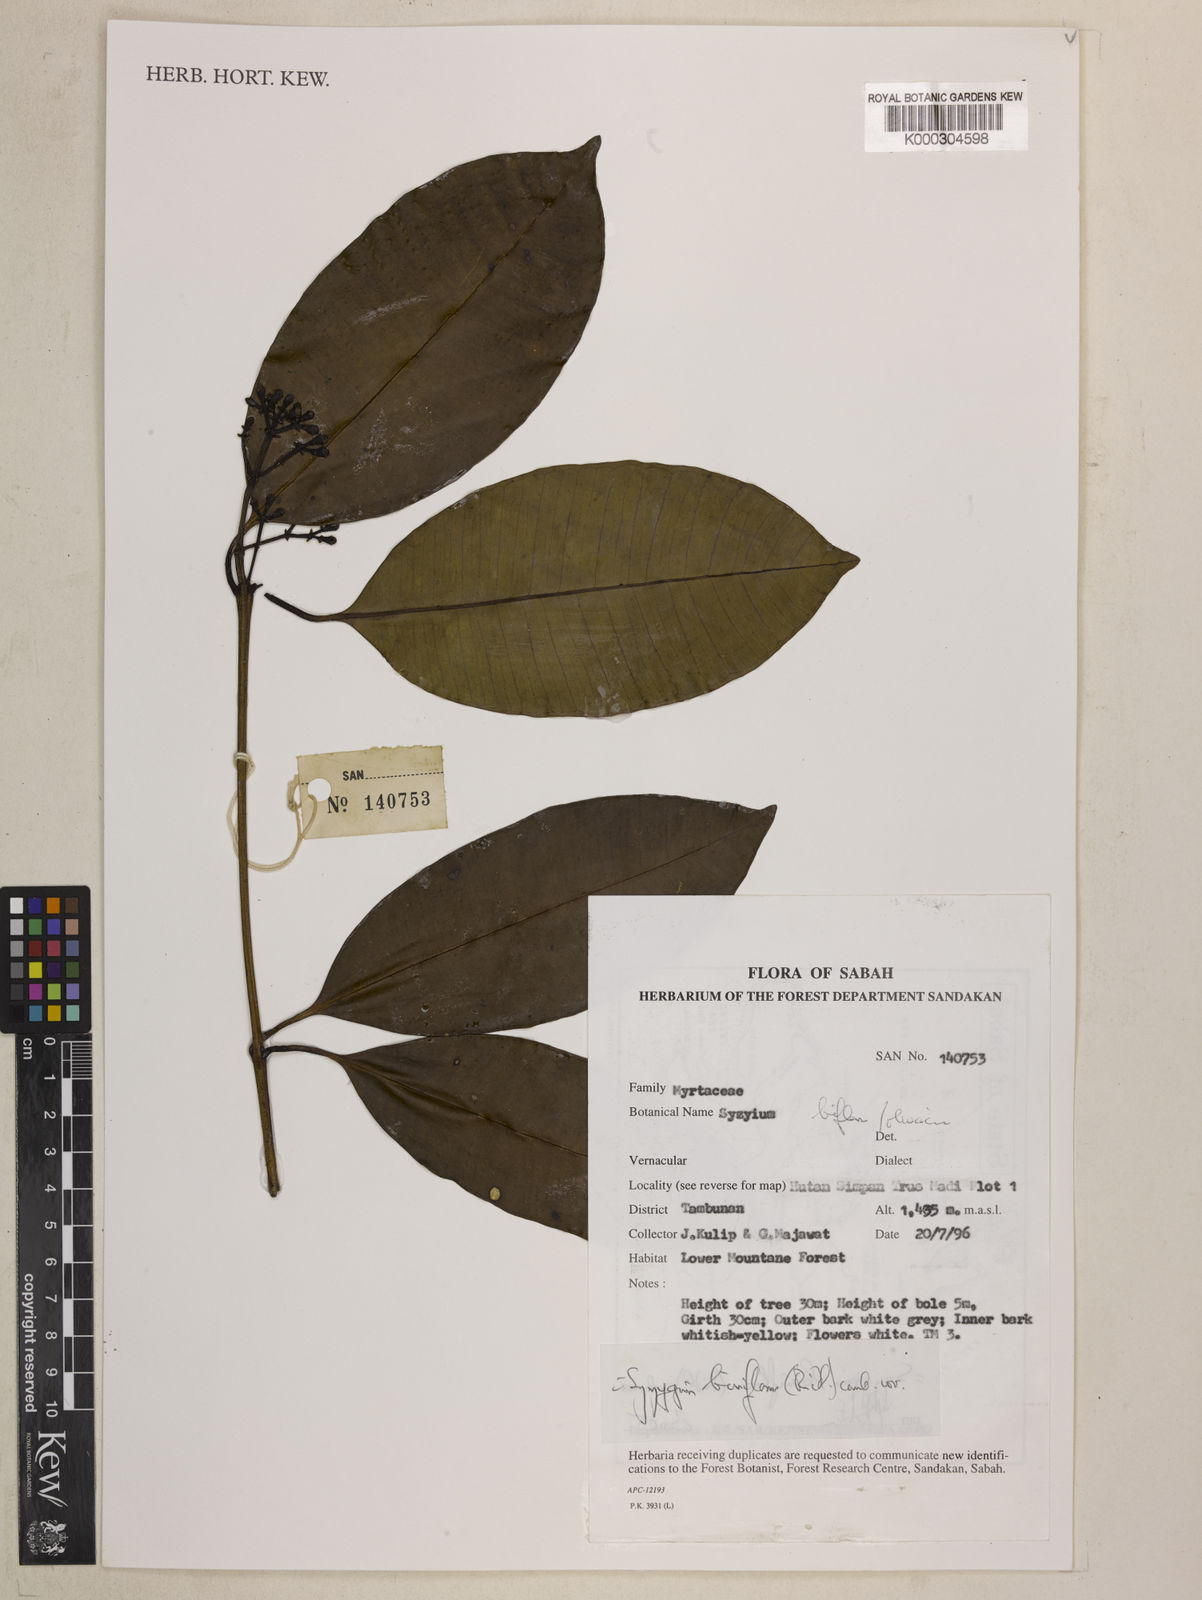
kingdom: Plantae
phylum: Tracheophyta
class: Magnoliopsida
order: Myrtales
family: Myrtaceae
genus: Syzygium
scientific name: Syzygium biniflorum
